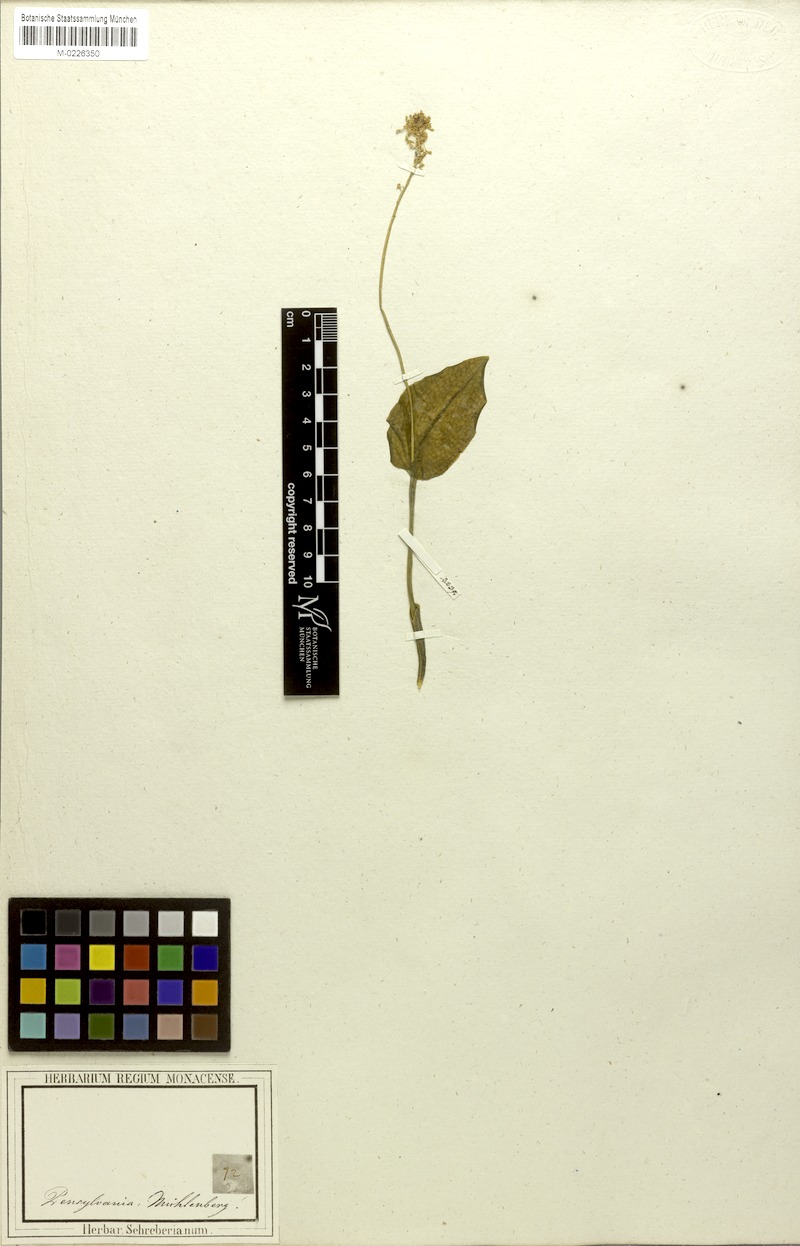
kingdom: Plantae
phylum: Tracheophyta
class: Liliopsida
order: Asparagales
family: Orchidaceae
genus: Malaxis
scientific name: Malaxis unifolia
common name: Green adder's-mouth
